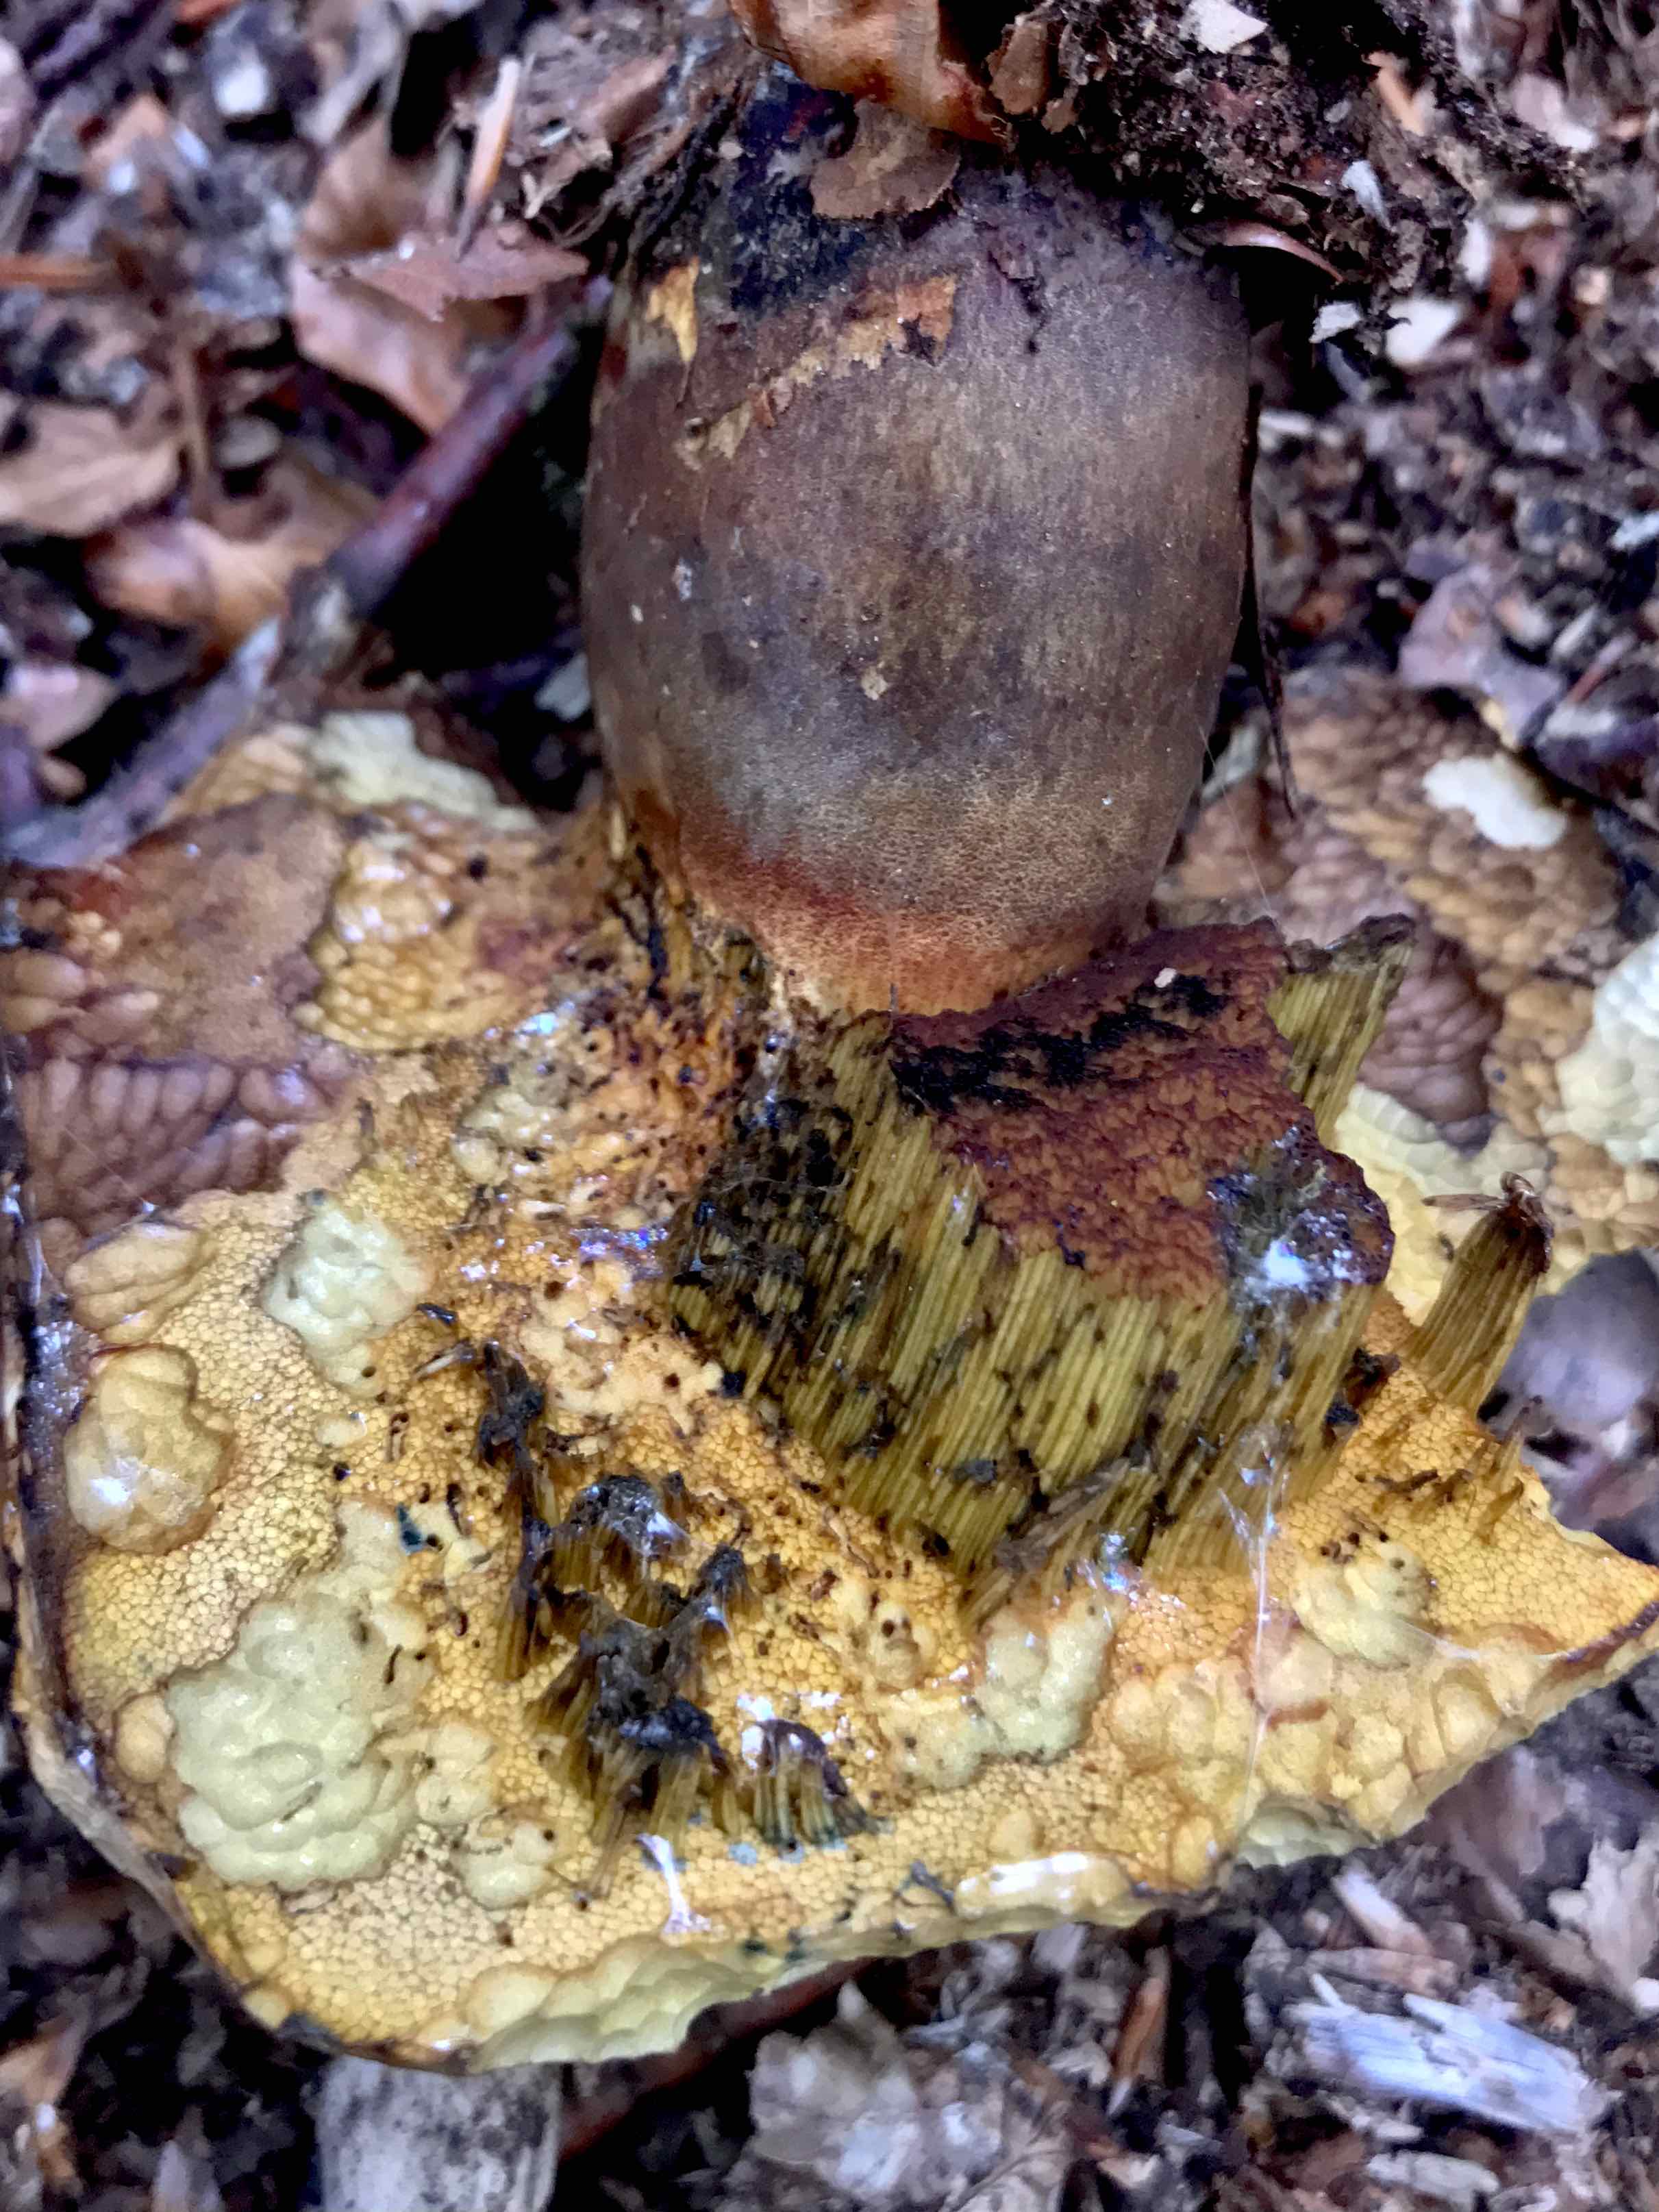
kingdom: Fungi
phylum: Basidiomycota
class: Agaricomycetes
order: Boletales
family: Boletaceae
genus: Neoboletus
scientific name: Neoboletus erythropus
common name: punktstokket indigorørhat
